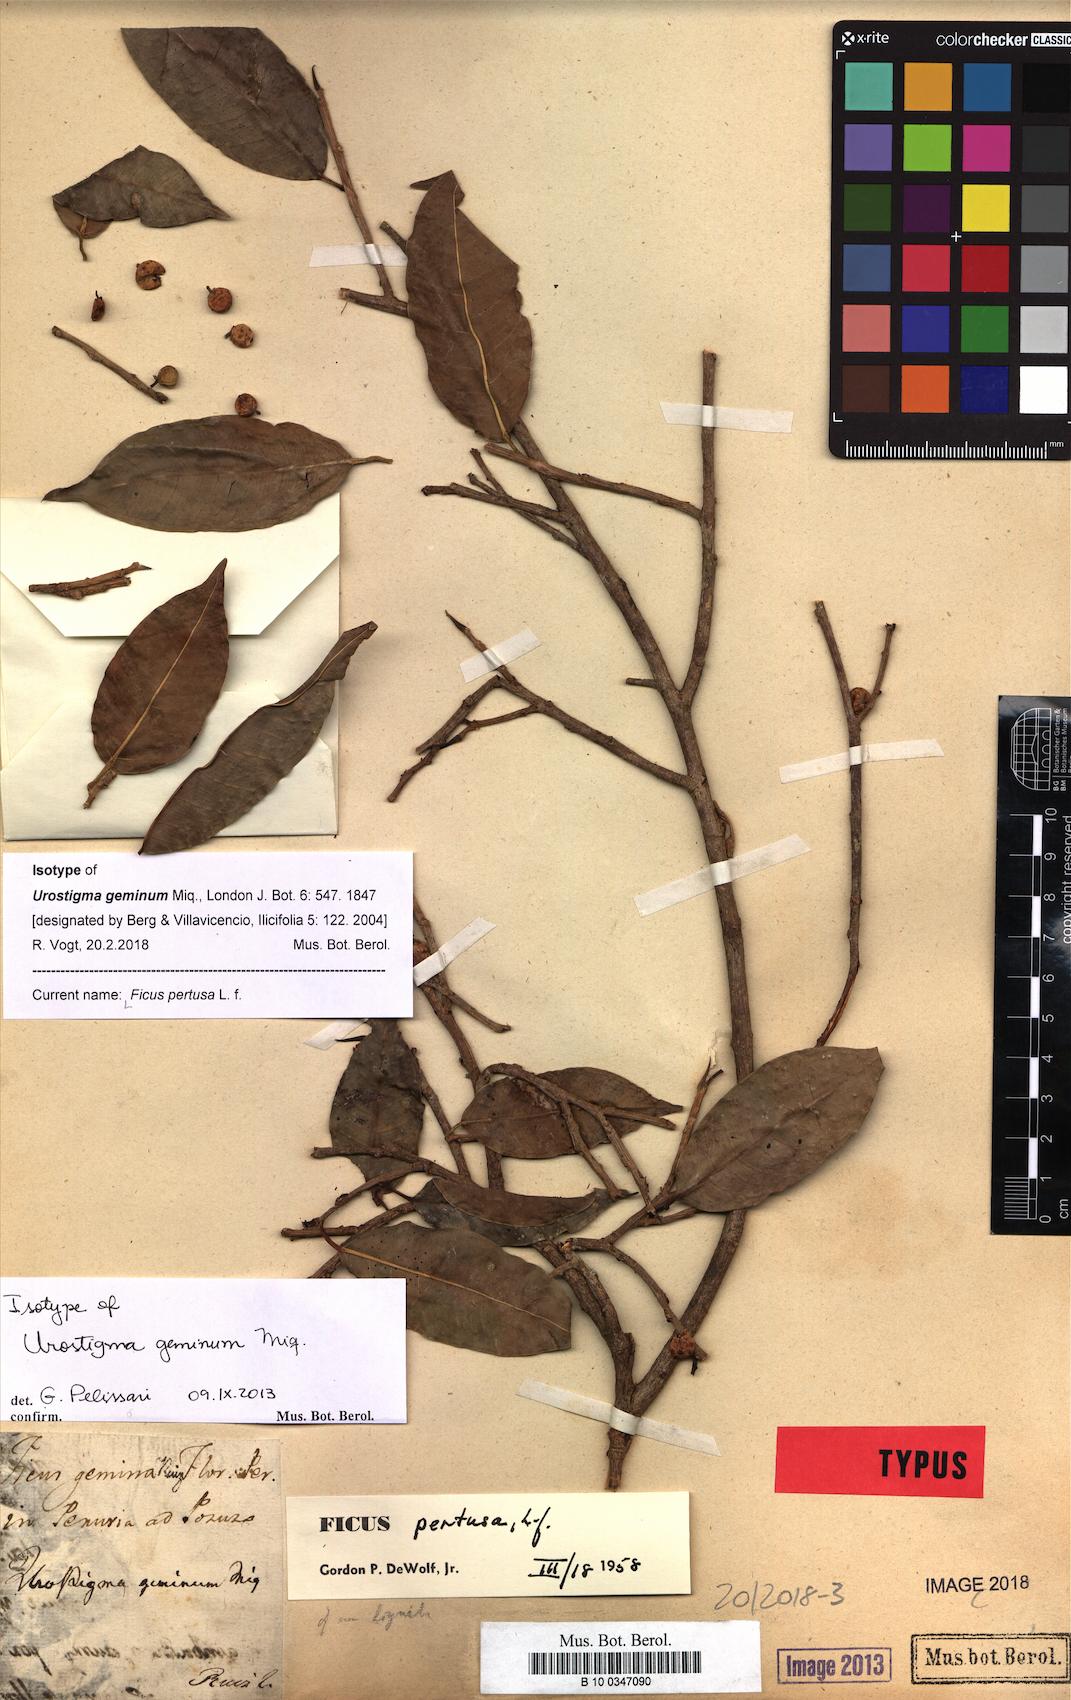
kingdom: Plantae
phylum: Tracheophyta
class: Magnoliopsida
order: Rosales
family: Moraceae
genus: Ficus
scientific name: Ficus pertusa
